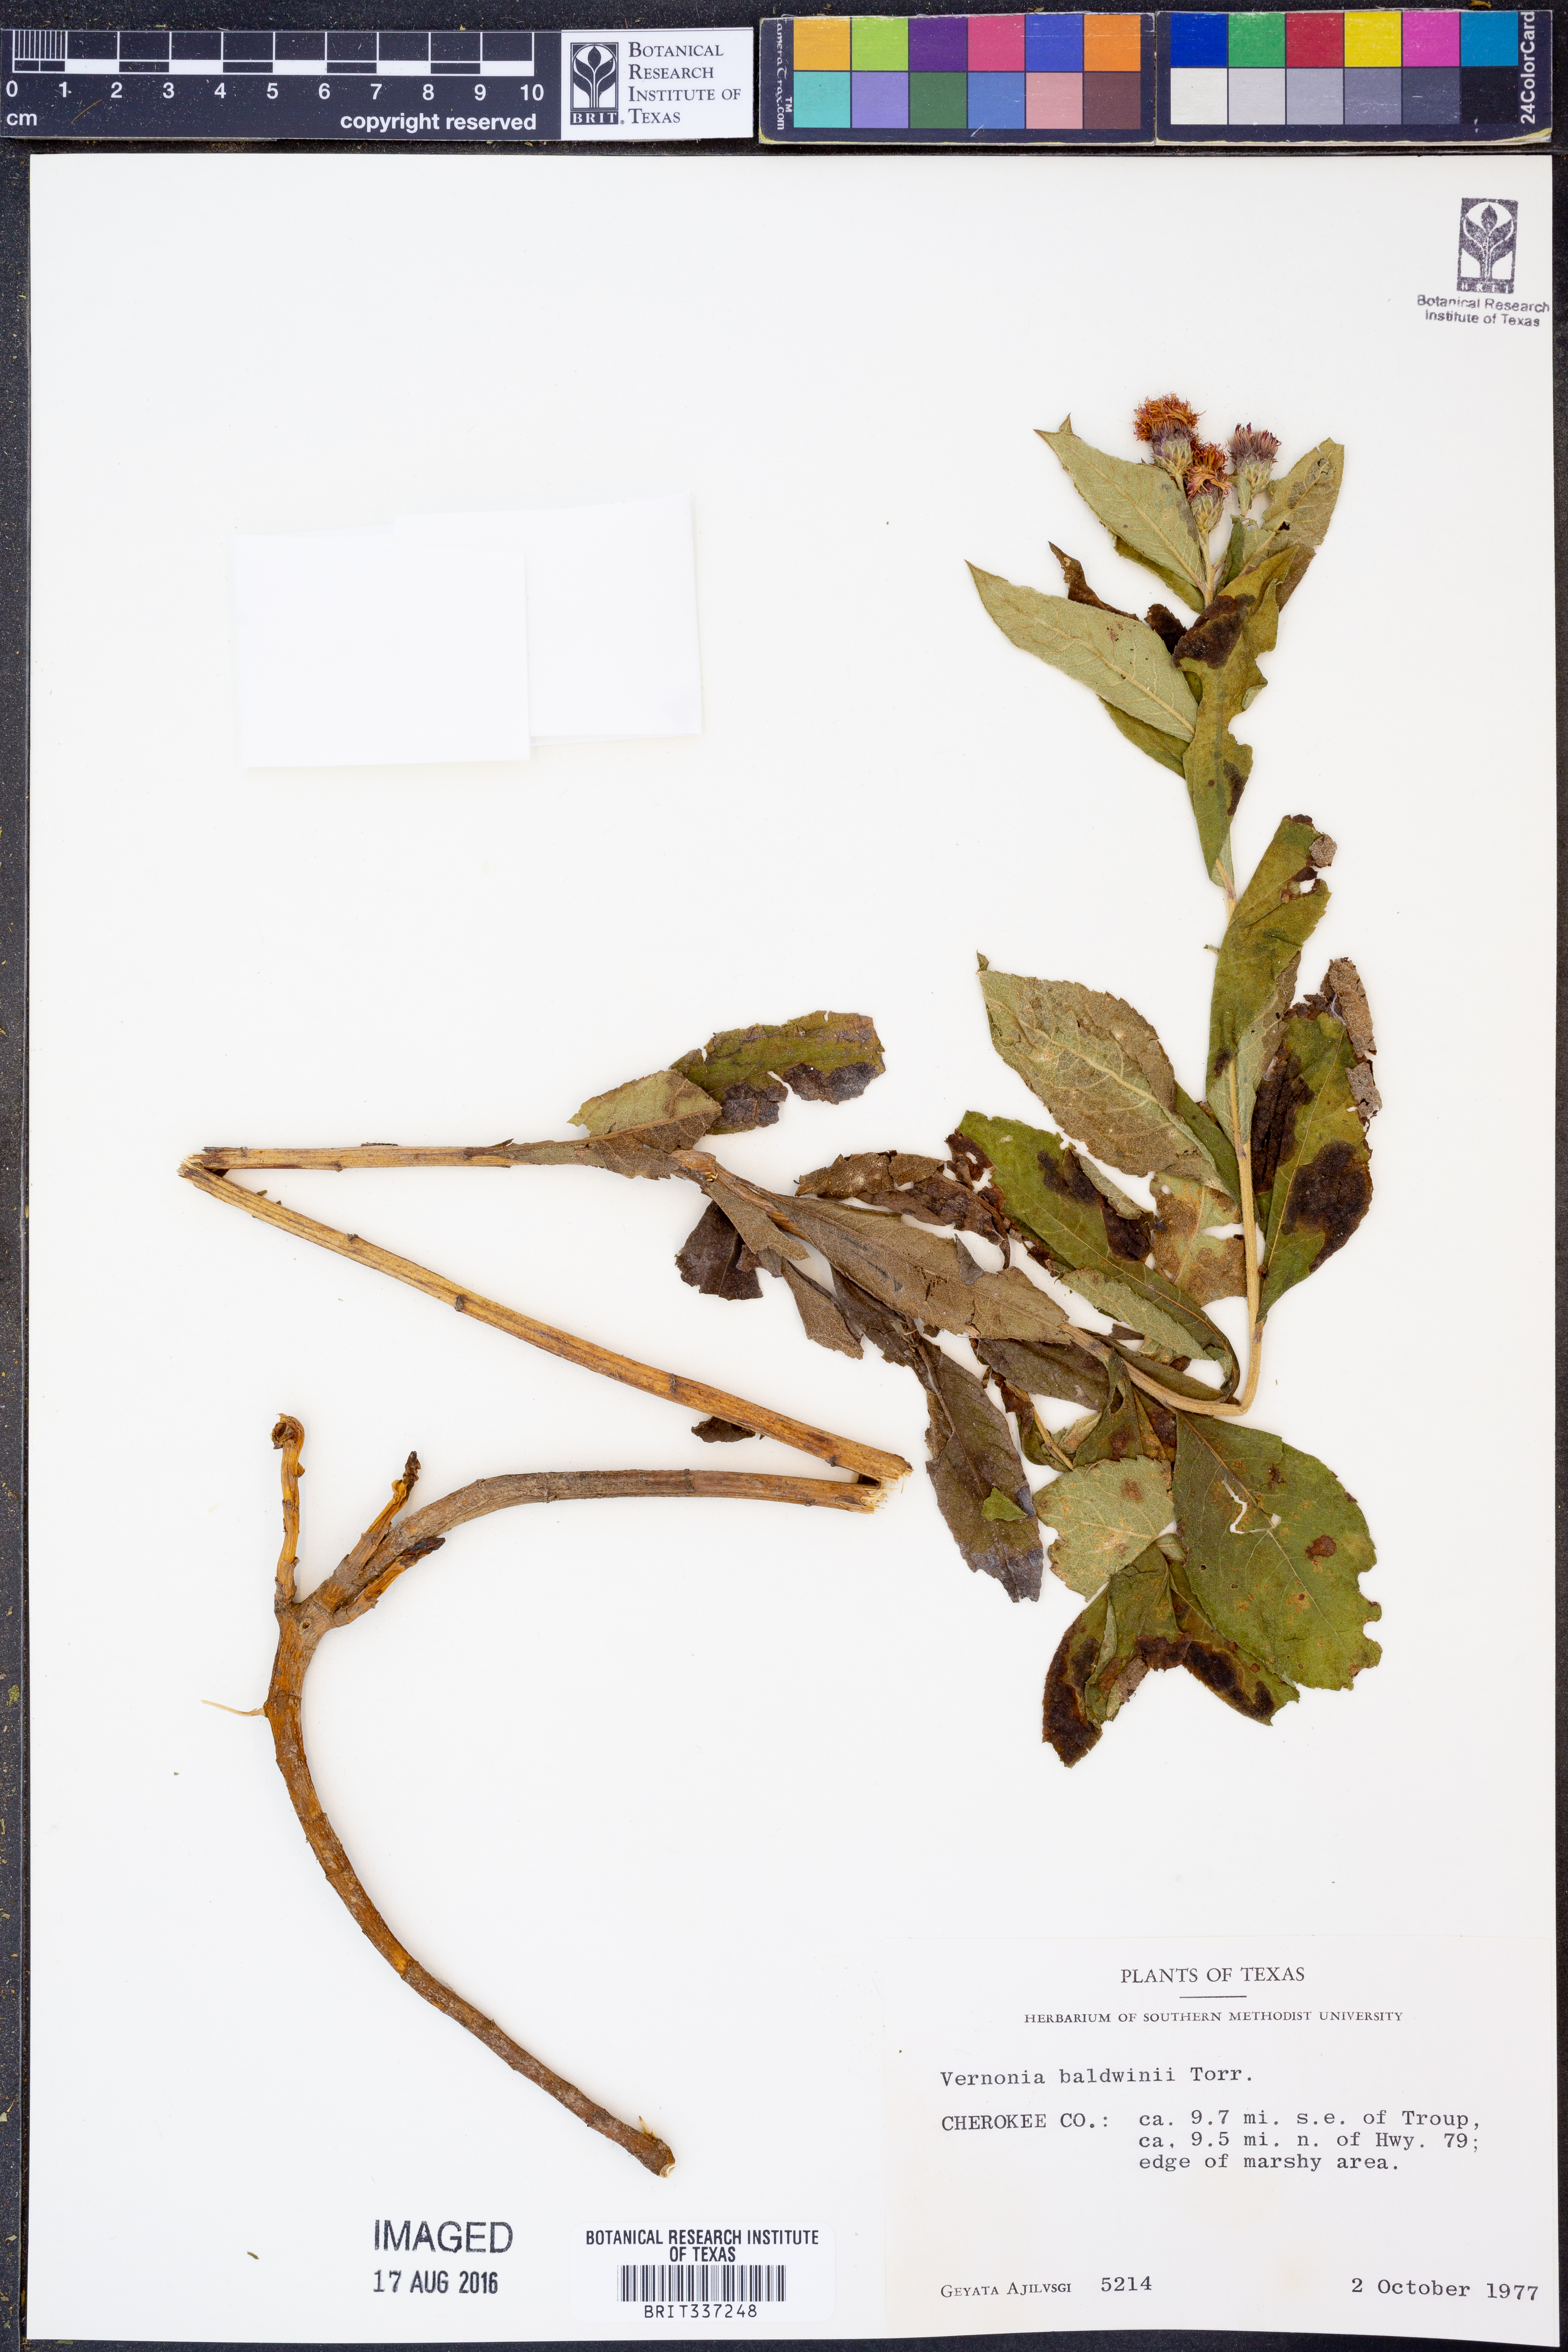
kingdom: Plantae
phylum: Tracheophyta
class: Magnoliopsida
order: Asterales
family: Asteraceae
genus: Vernonia
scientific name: Vernonia baldwinii
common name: Western ironweed
